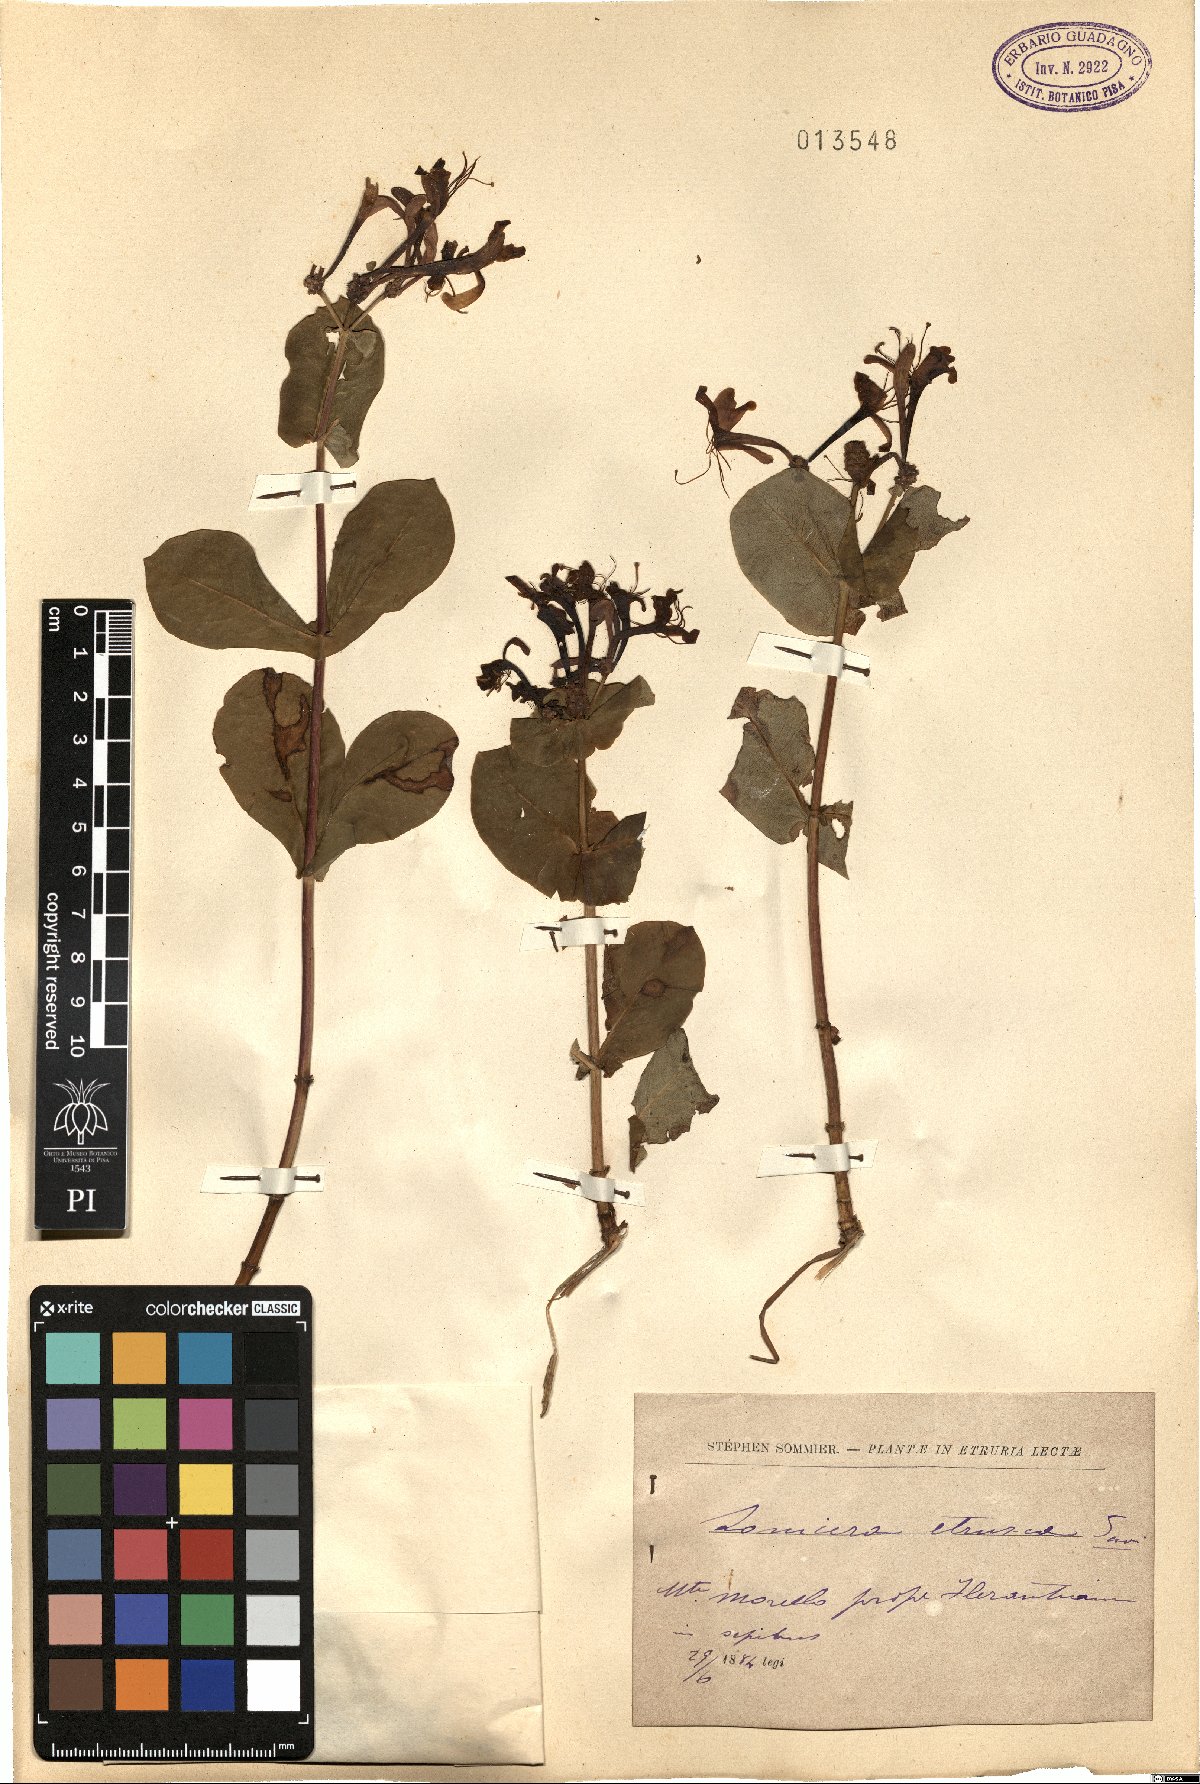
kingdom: Plantae
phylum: Tracheophyta
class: Magnoliopsida
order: Dipsacales
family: Caprifoliaceae
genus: Lonicera
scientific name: Lonicera etrusca
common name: Etruscan honeysuckle
